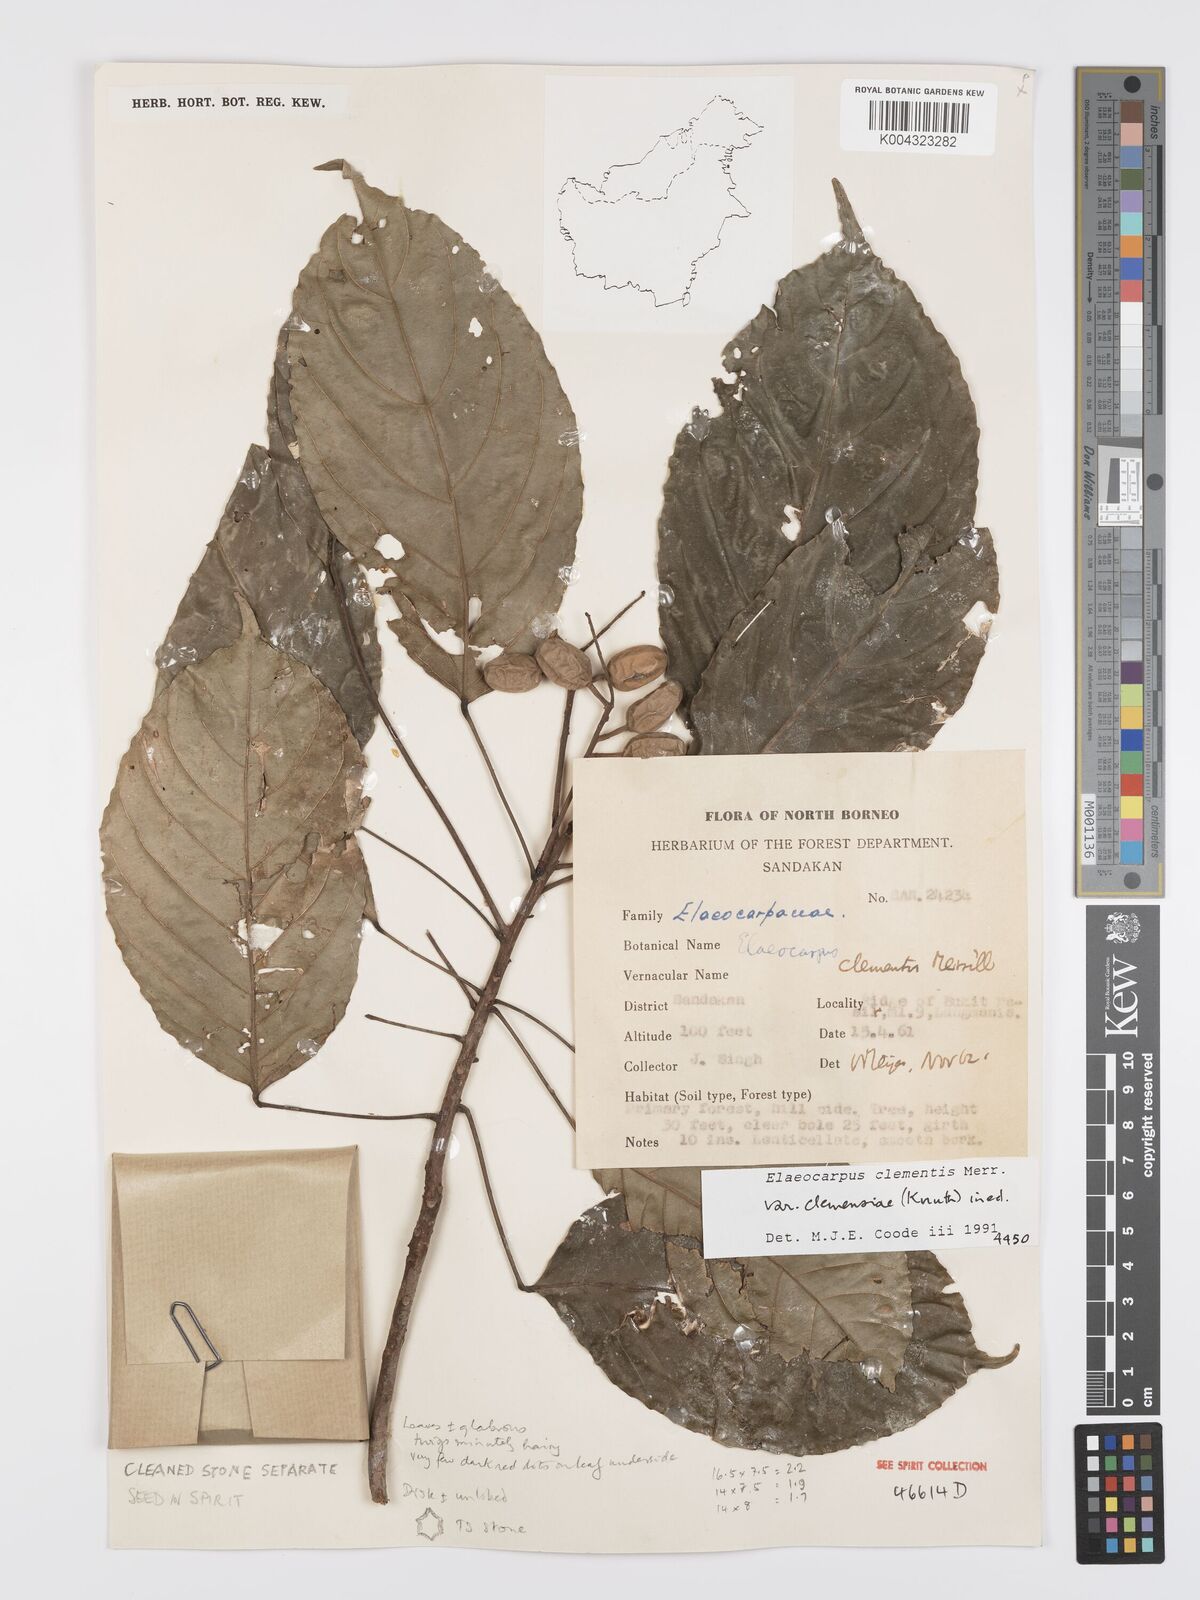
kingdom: Plantae
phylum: Tracheophyta
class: Magnoliopsida
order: Oxalidales
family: Elaeocarpaceae
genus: Elaeocarpus
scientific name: Elaeocarpus clementis
